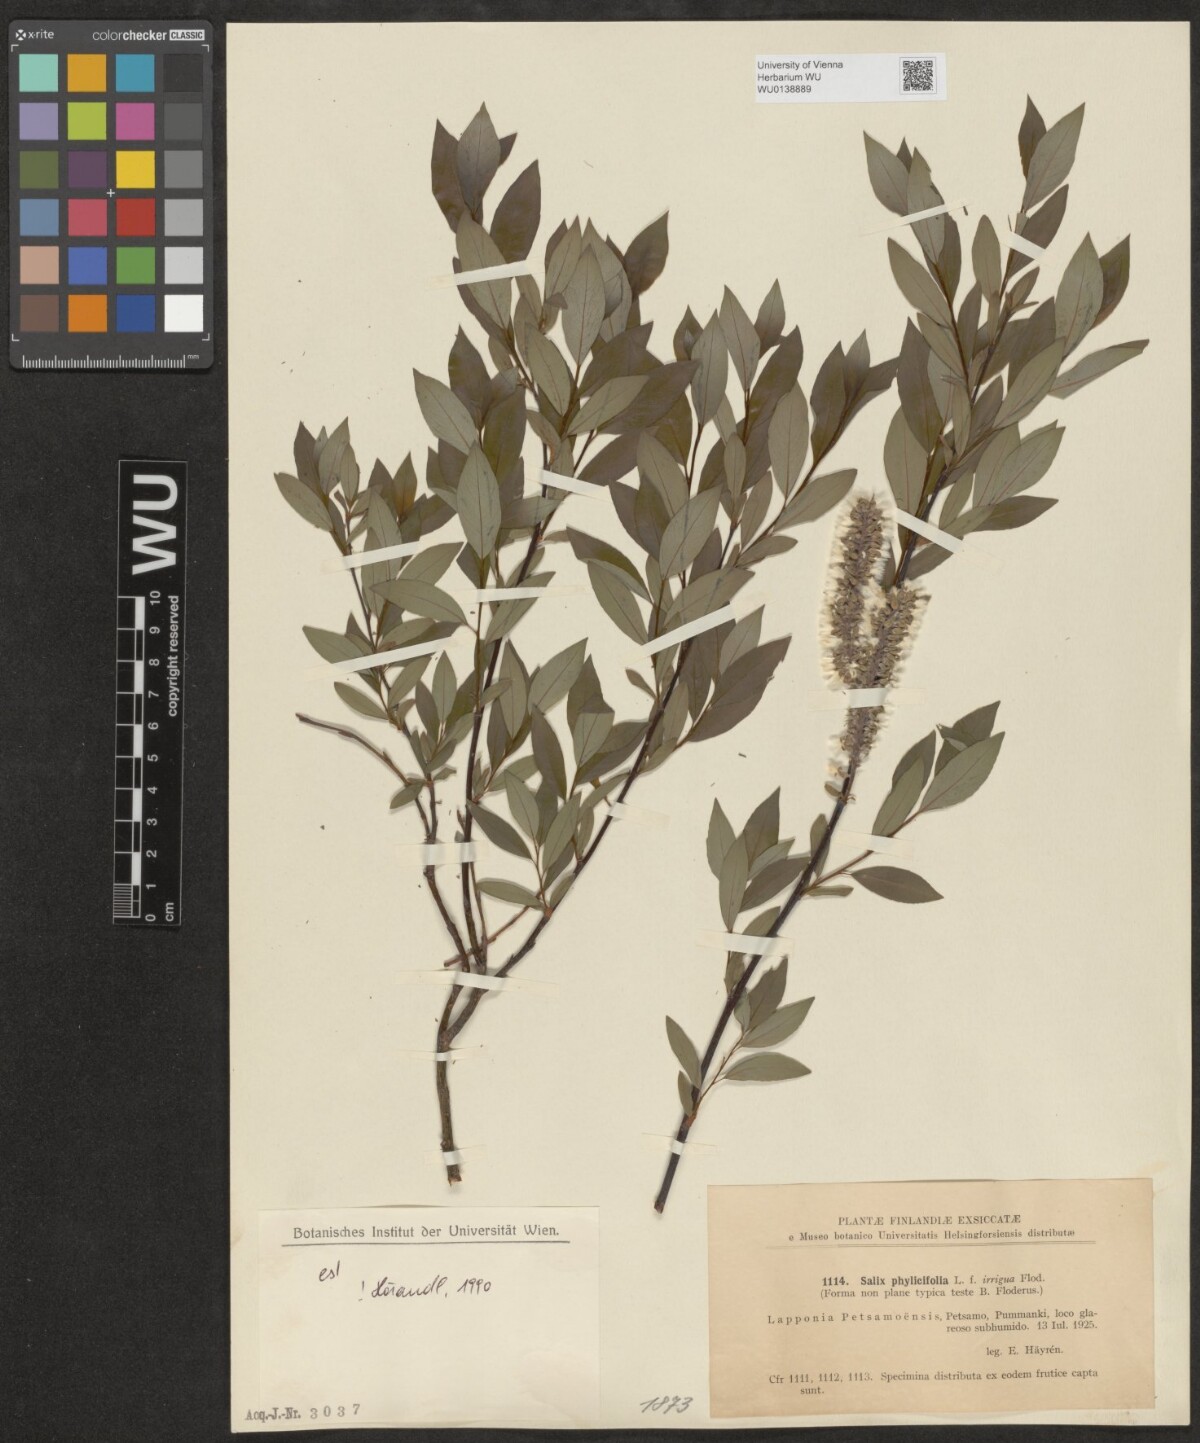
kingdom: Plantae
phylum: Tracheophyta
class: Magnoliopsida
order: Malpighiales
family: Salicaceae
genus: Salix
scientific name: Salix phylicifolia
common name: Tea-leaved willow
